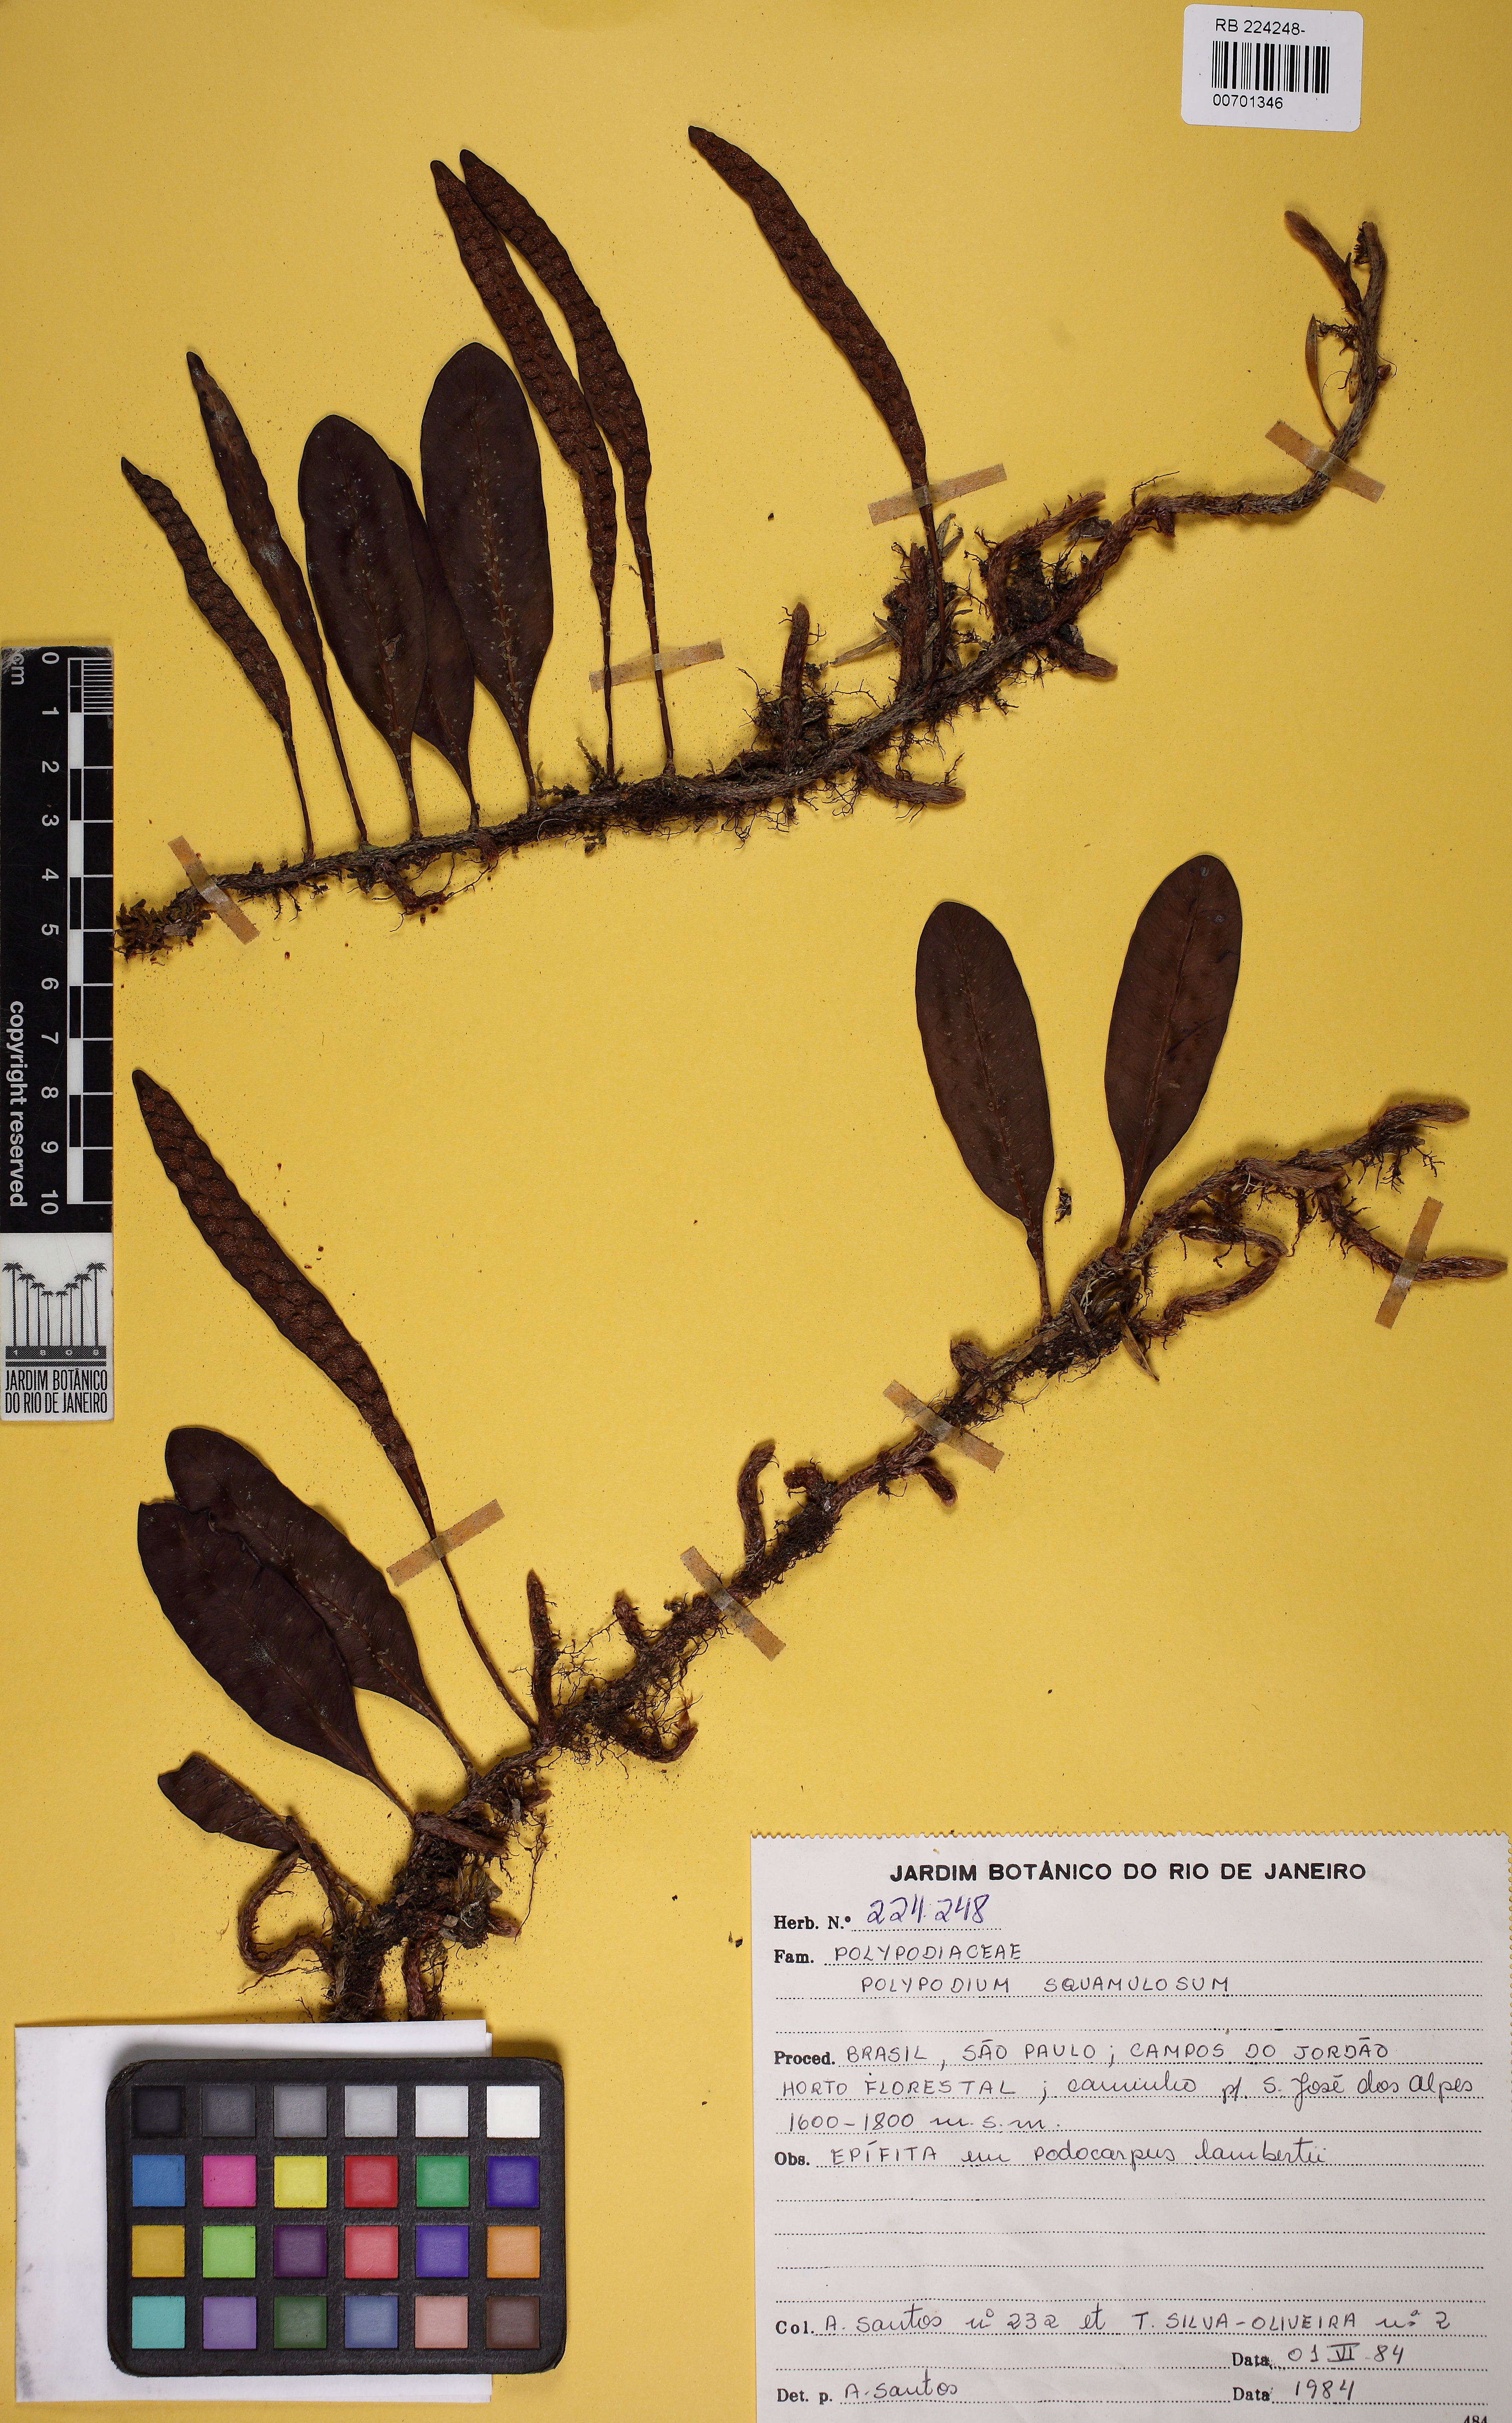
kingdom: Plantae
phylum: Tracheophyta
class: Polypodiopsida
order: Polypodiales
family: Polypodiaceae
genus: Microgramma
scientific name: Microgramma squamulosa
